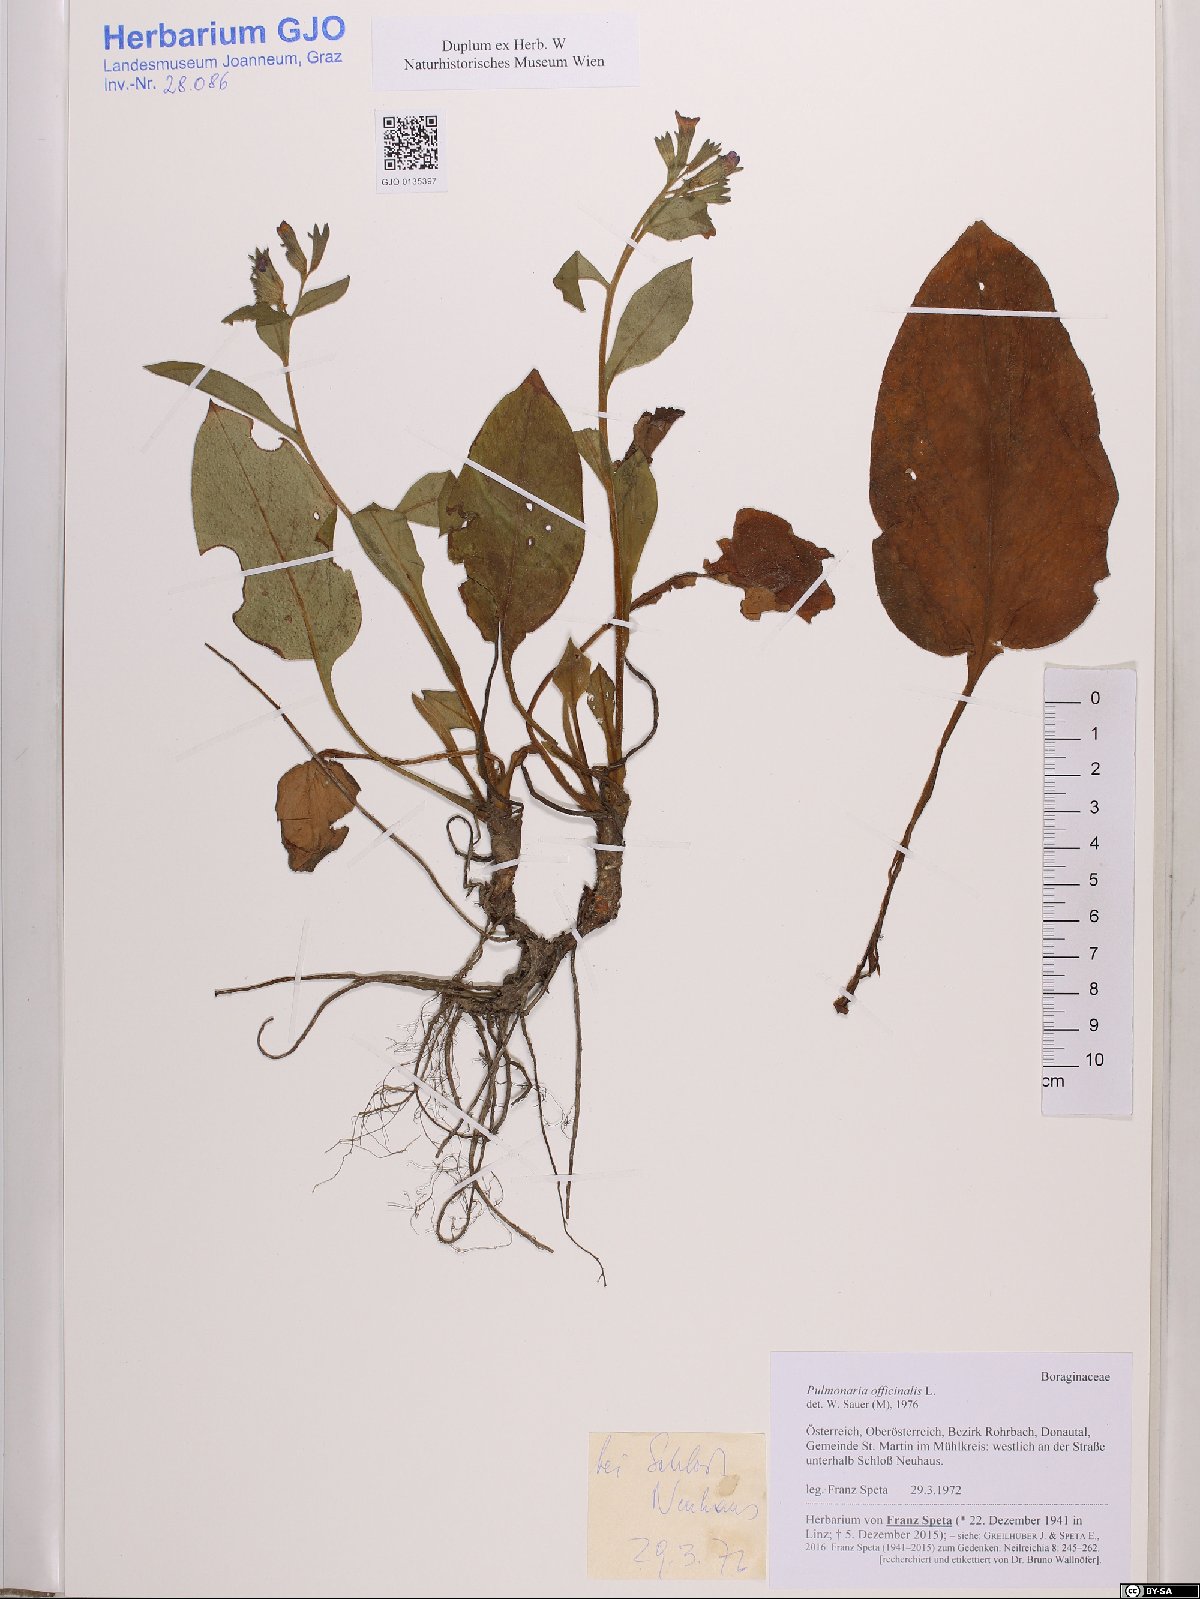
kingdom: Plantae
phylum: Tracheophyta
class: Magnoliopsida
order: Boraginales
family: Boraginaceae
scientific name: Boraginaceae
